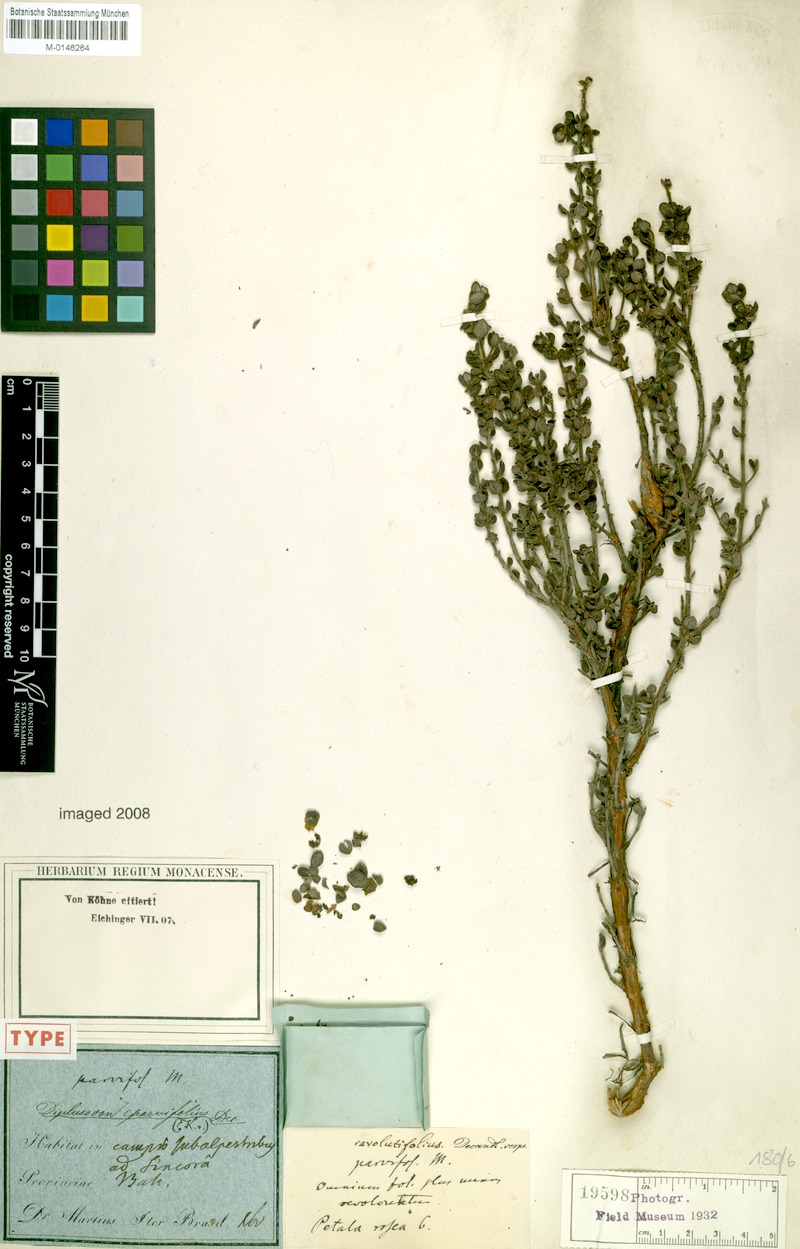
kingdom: Plantae
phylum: Tracheophyta
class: Magnoliopsida
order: Myrtales
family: Lythraceae
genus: Diplusodon
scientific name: Diplusodon parvifolius
